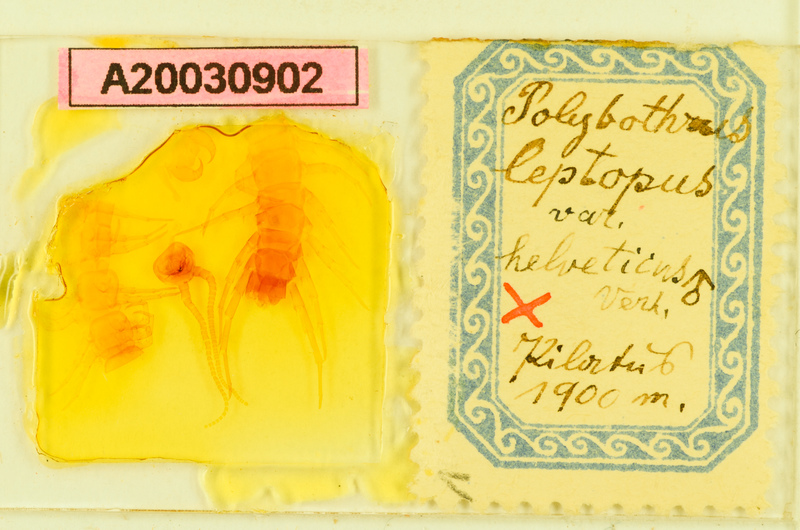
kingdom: Animalia
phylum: Arthropoda
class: Chilopoda
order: Lithobiomorpha
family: Lithobiidae
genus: Polybothrus
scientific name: Polybothrus leptopus
